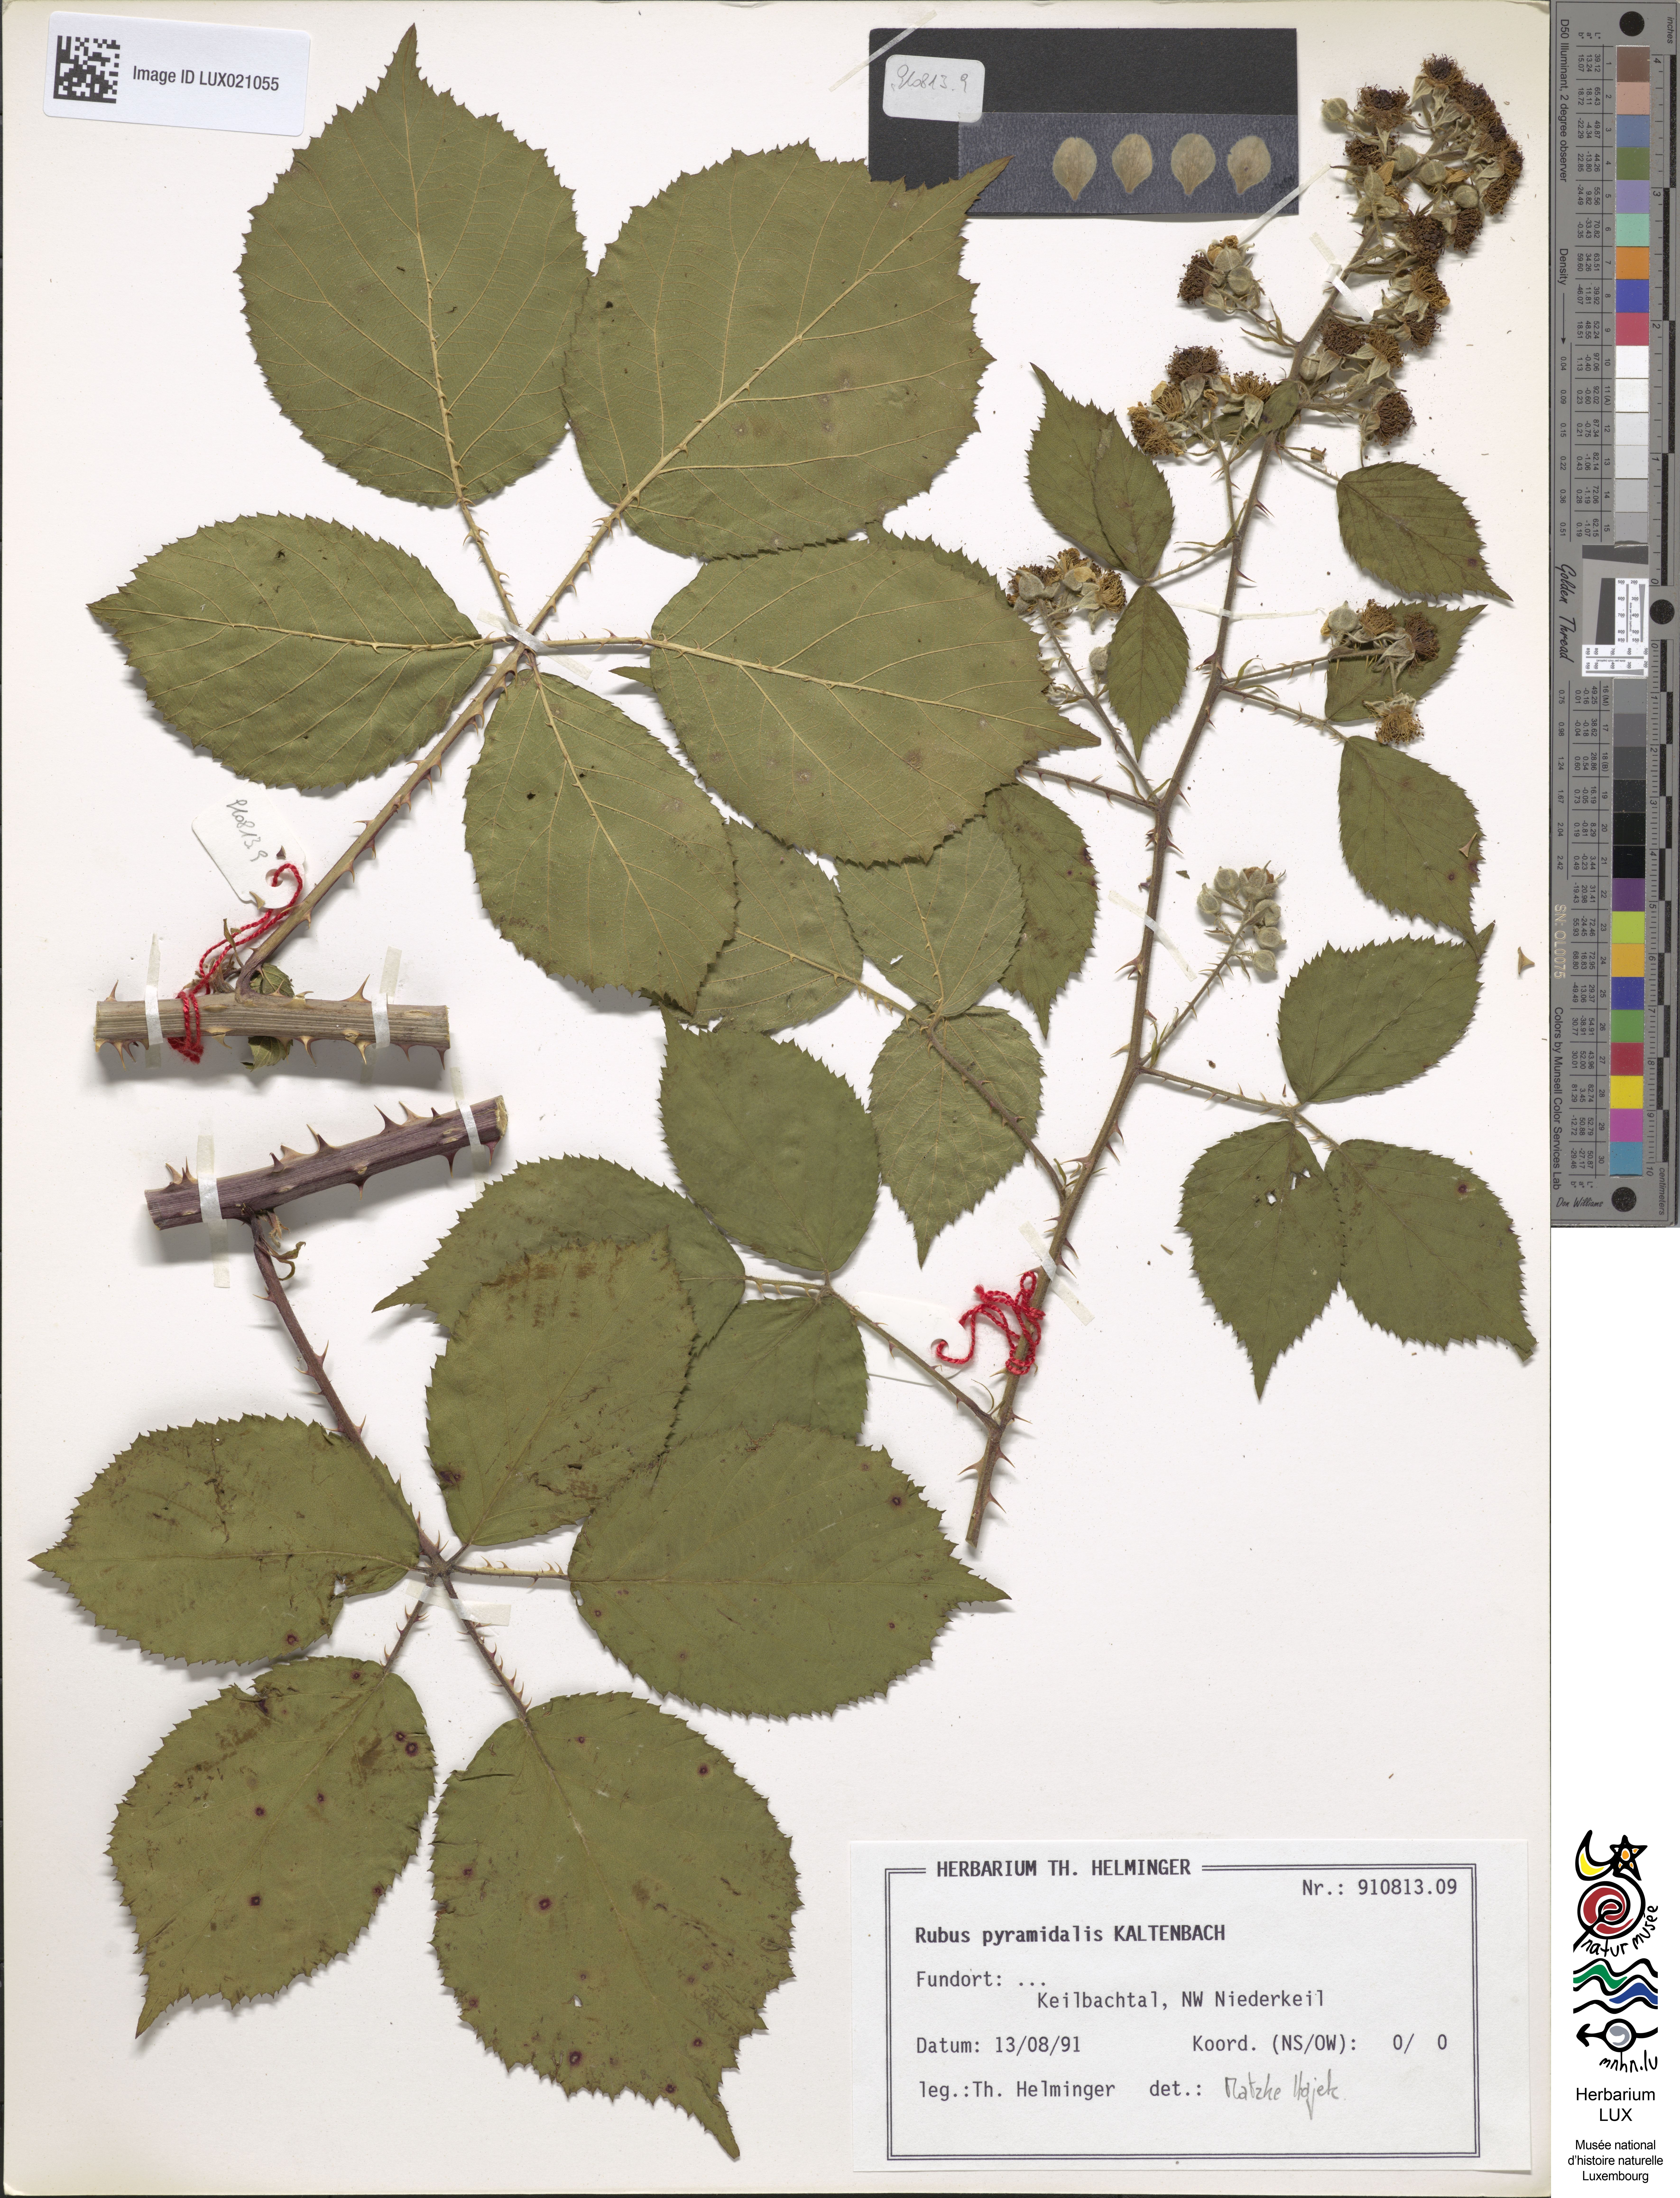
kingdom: Plantae
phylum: Tracheophyta
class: Magnoliopsida
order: Rosales
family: Rosaceae
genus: Rubus
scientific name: Rubus umbrosus
